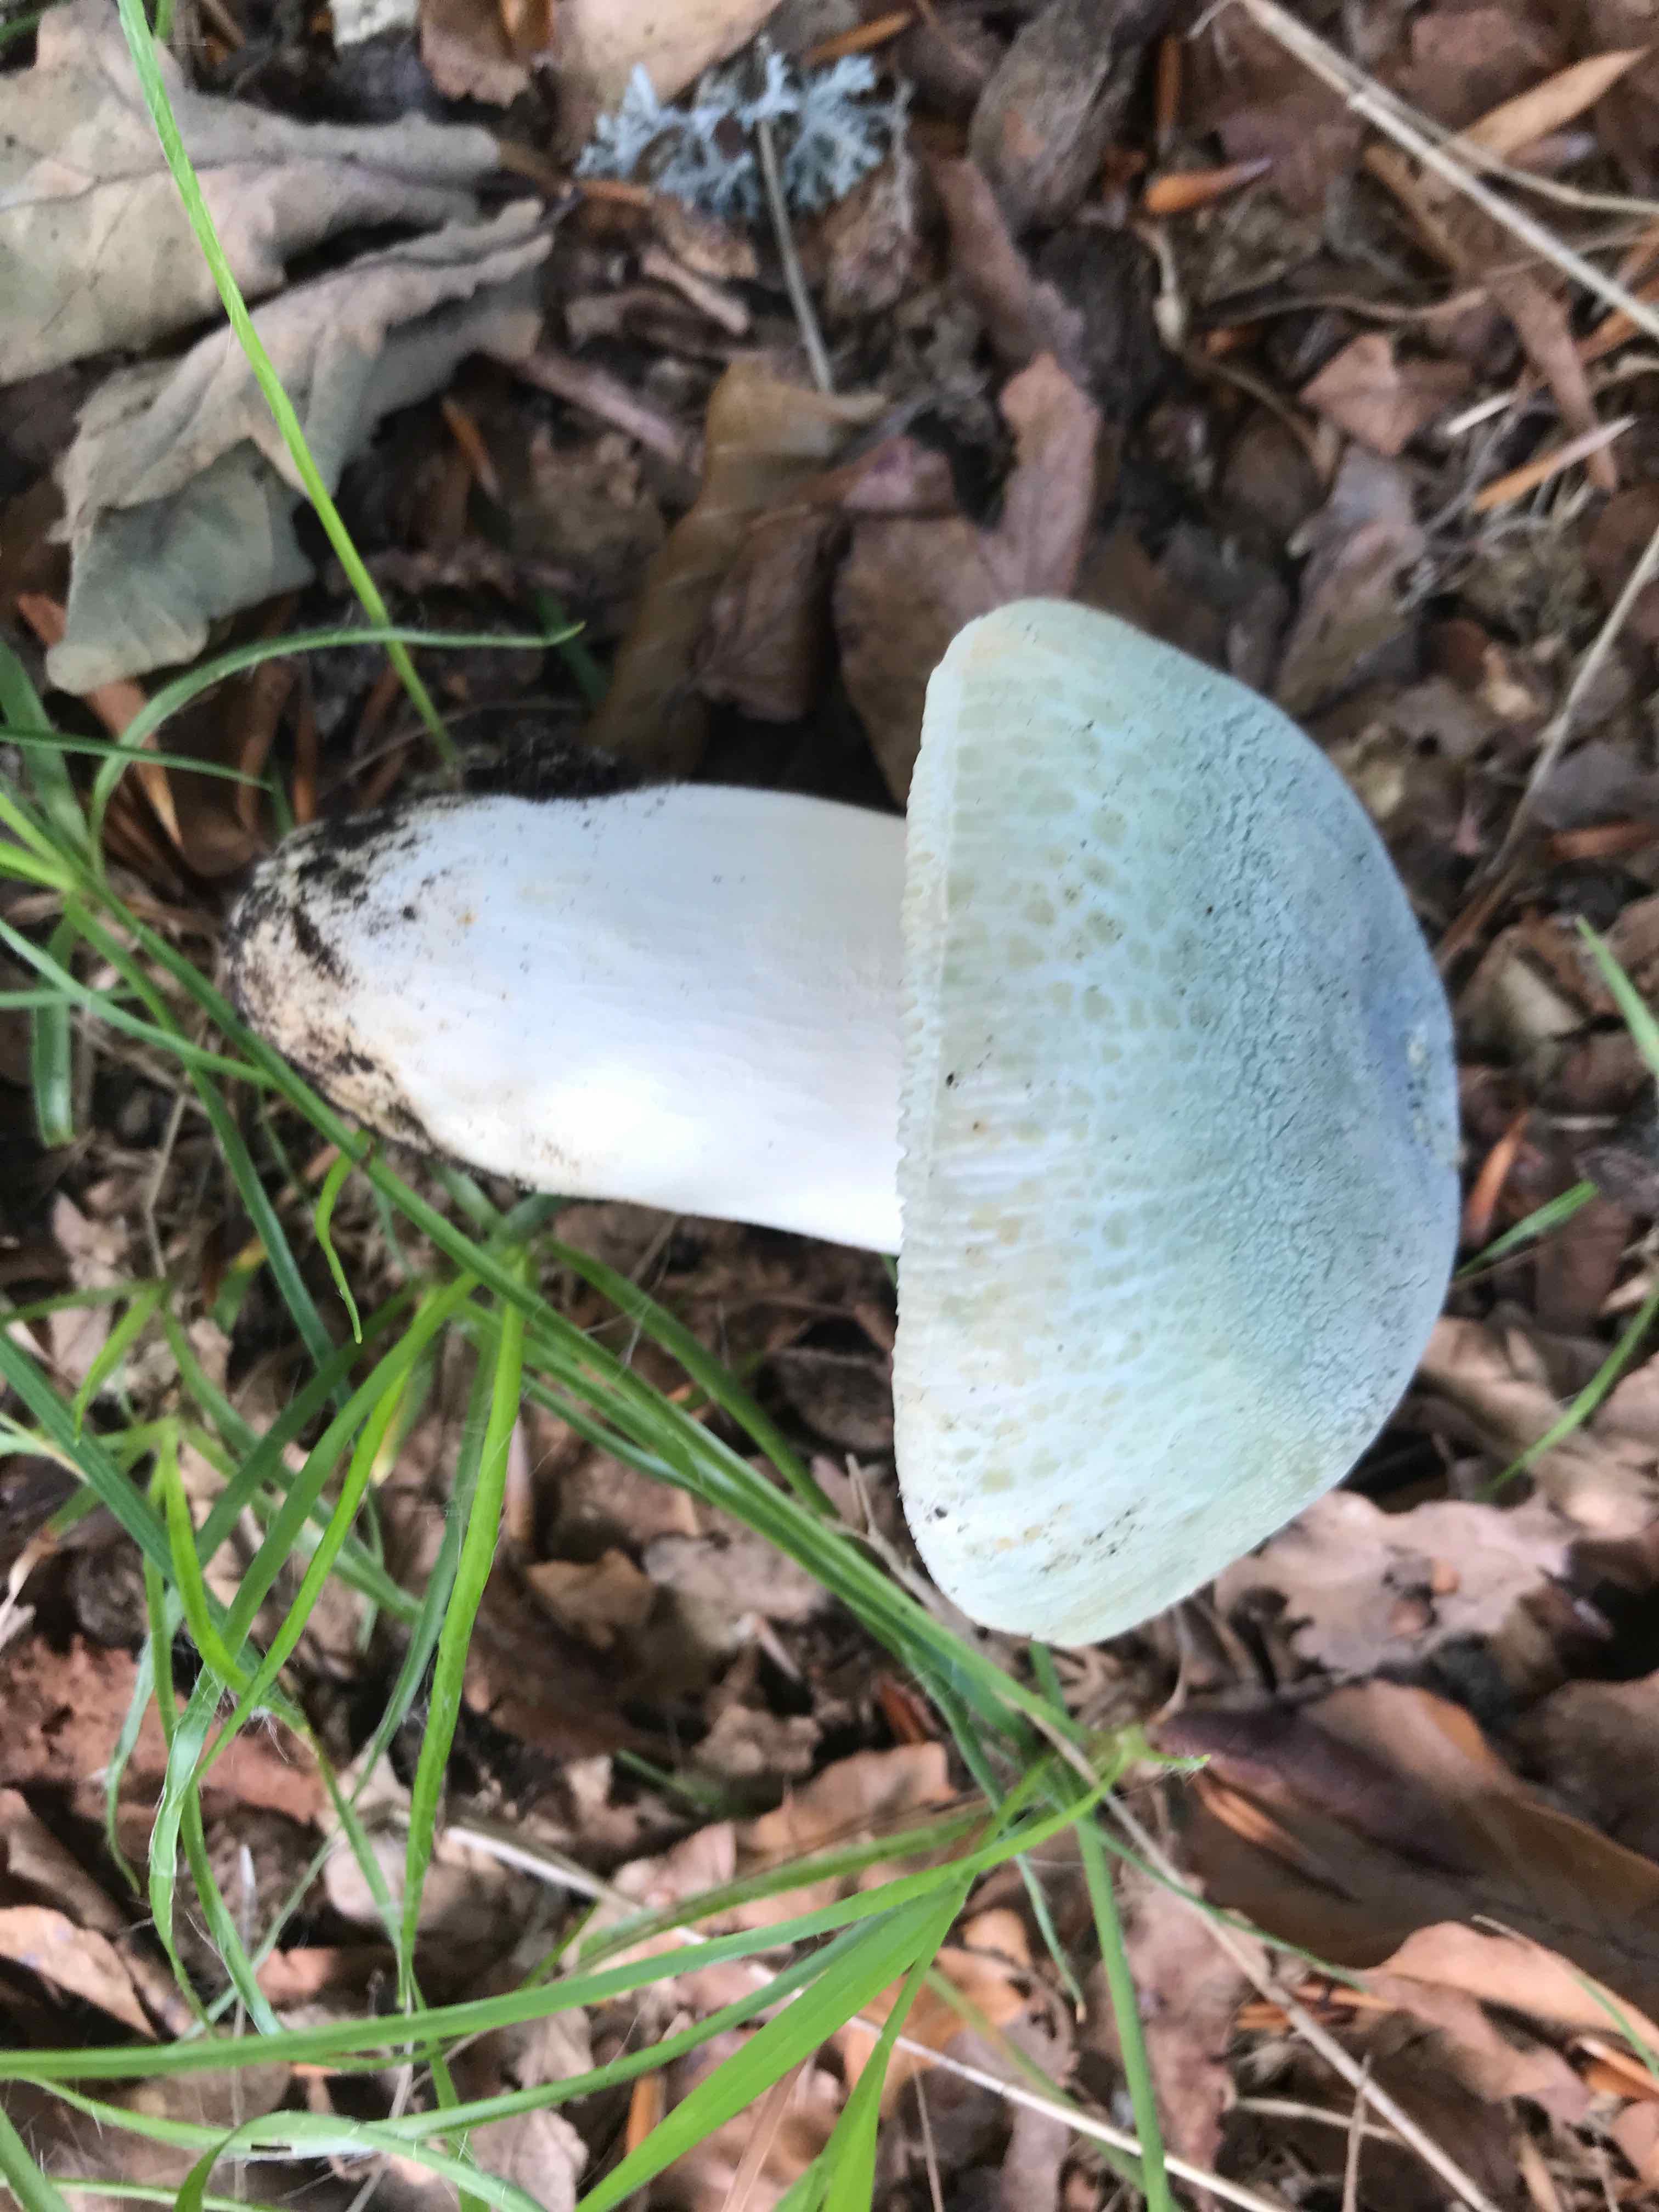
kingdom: Fungi
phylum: Basidiomycota
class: Agaricomycetes
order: Russulales
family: Russulaceae
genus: Russula
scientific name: Russula virescens
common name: spanskgrøn skørhat
